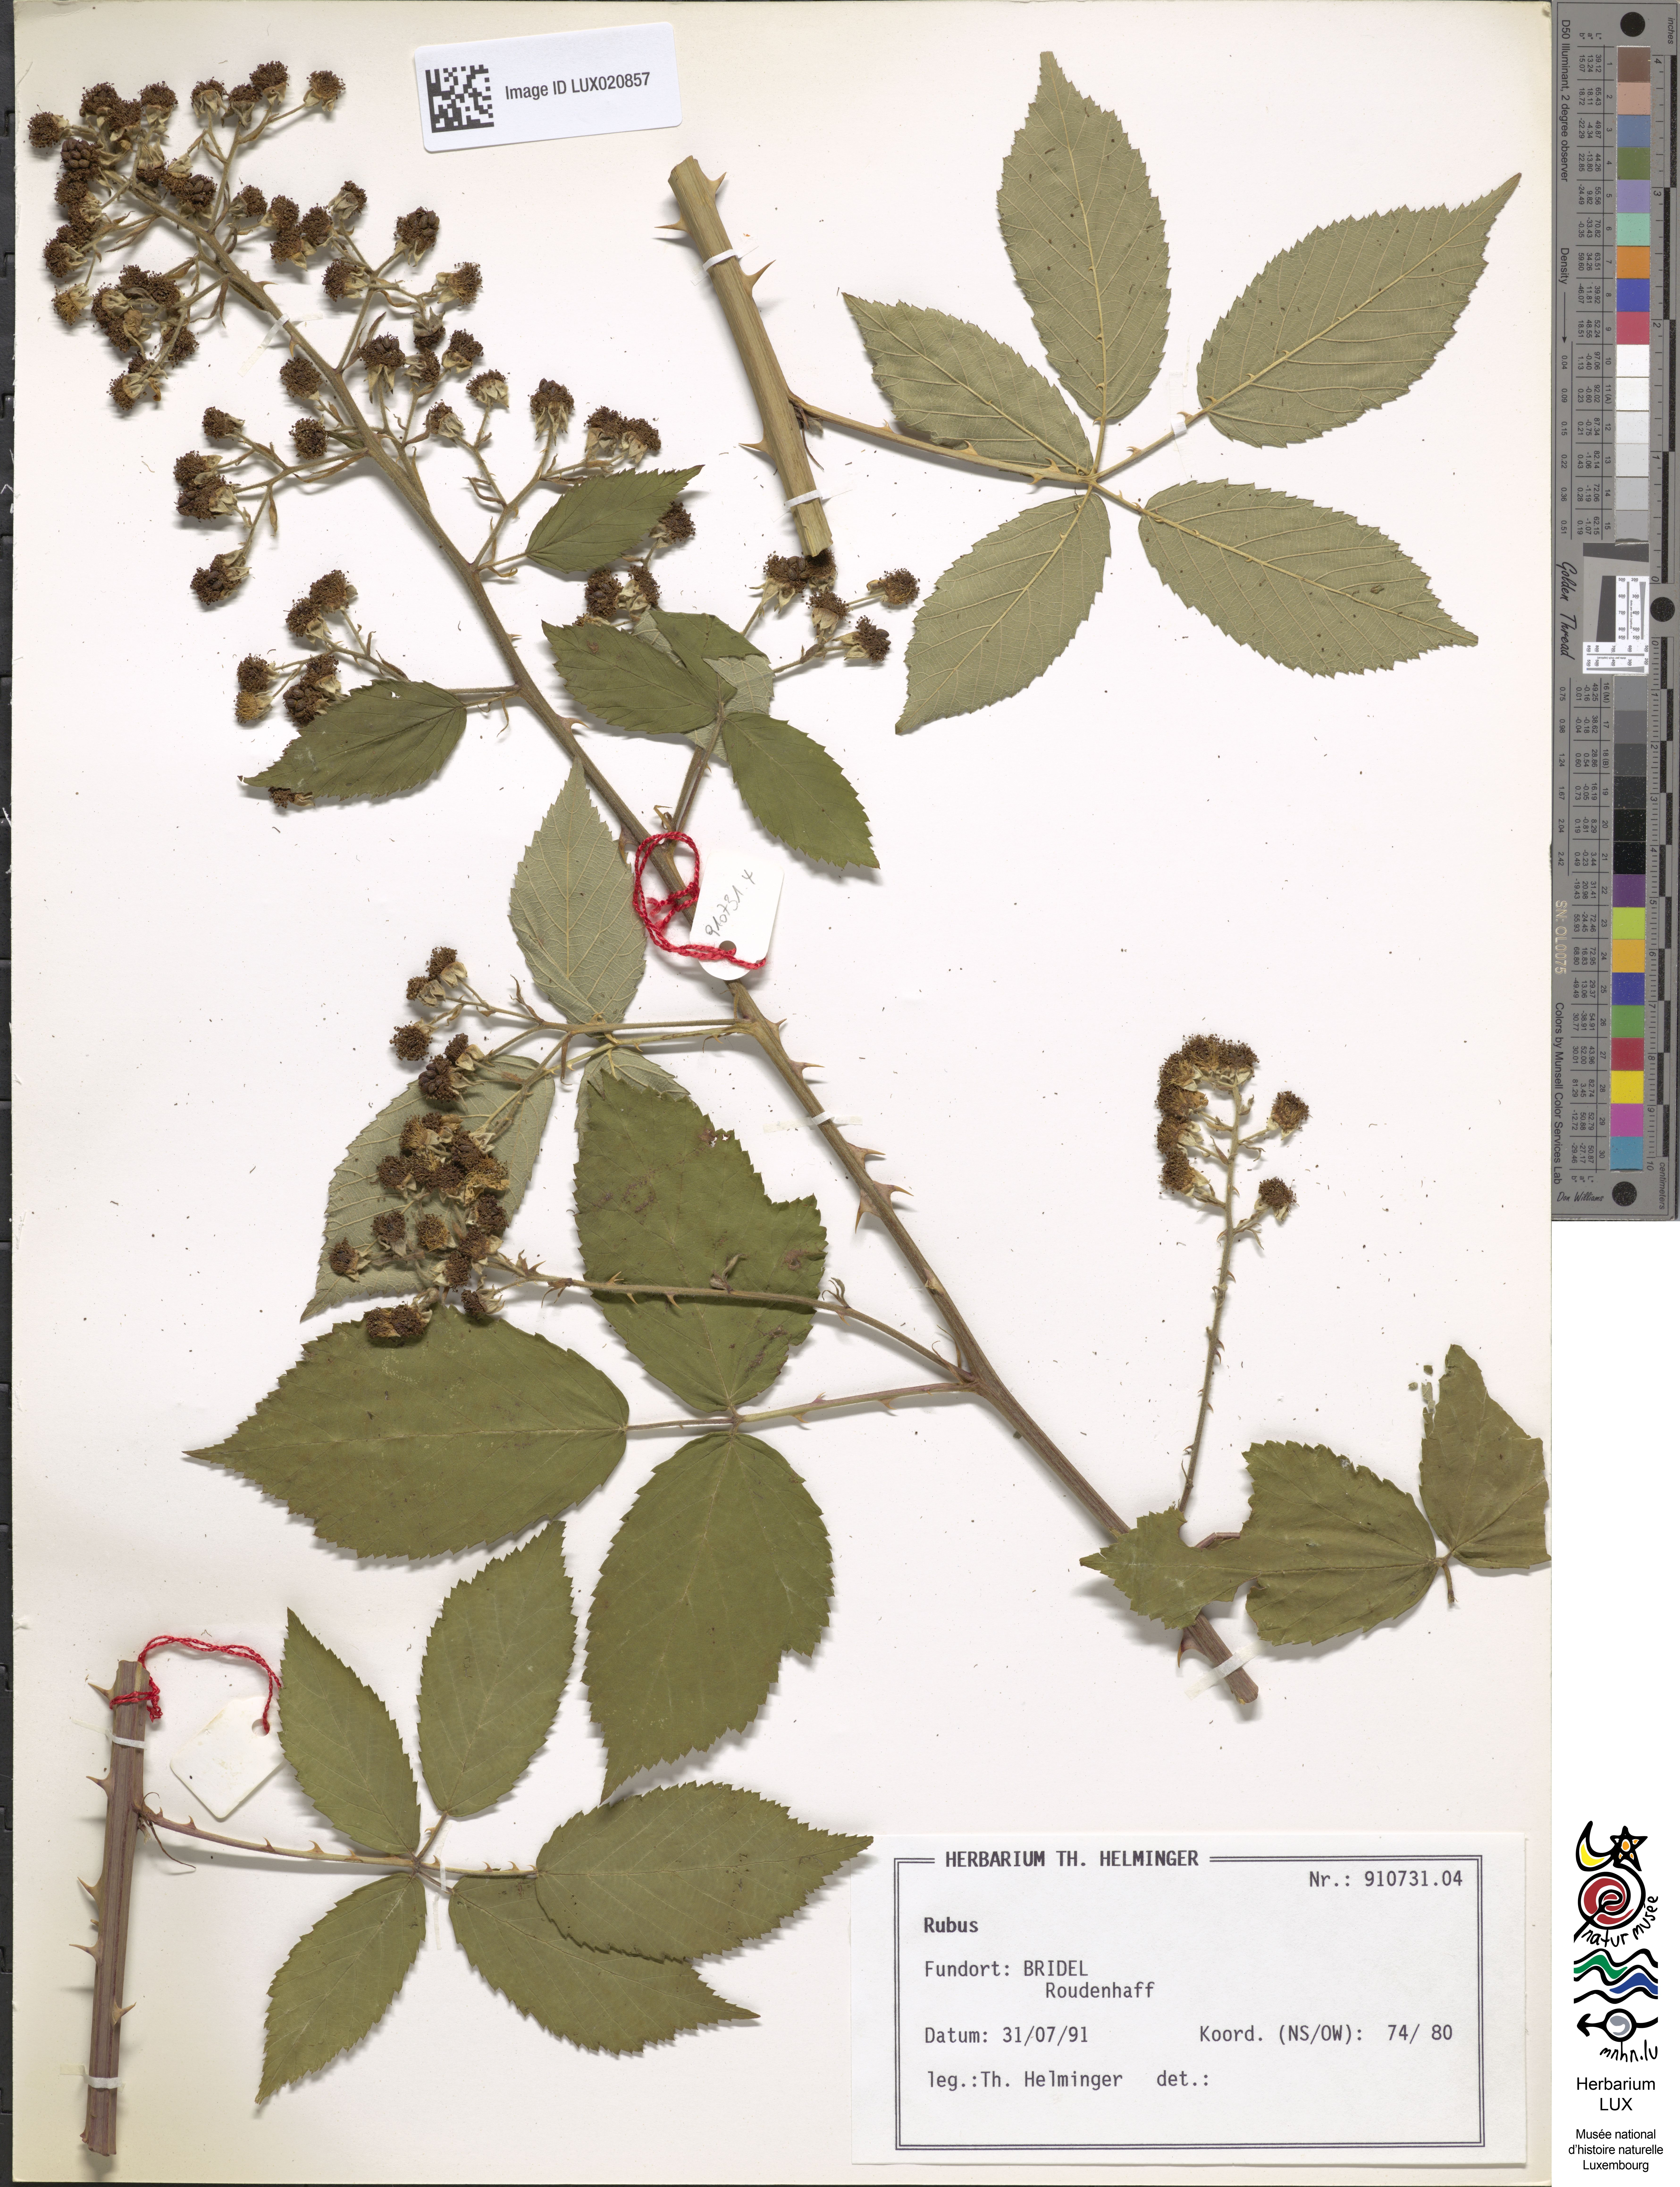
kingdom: Plantae
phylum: Tracheophyta
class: Magnoliopsida
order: Rosales
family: Rosaceae
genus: Rubus
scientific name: Rubus montanus
